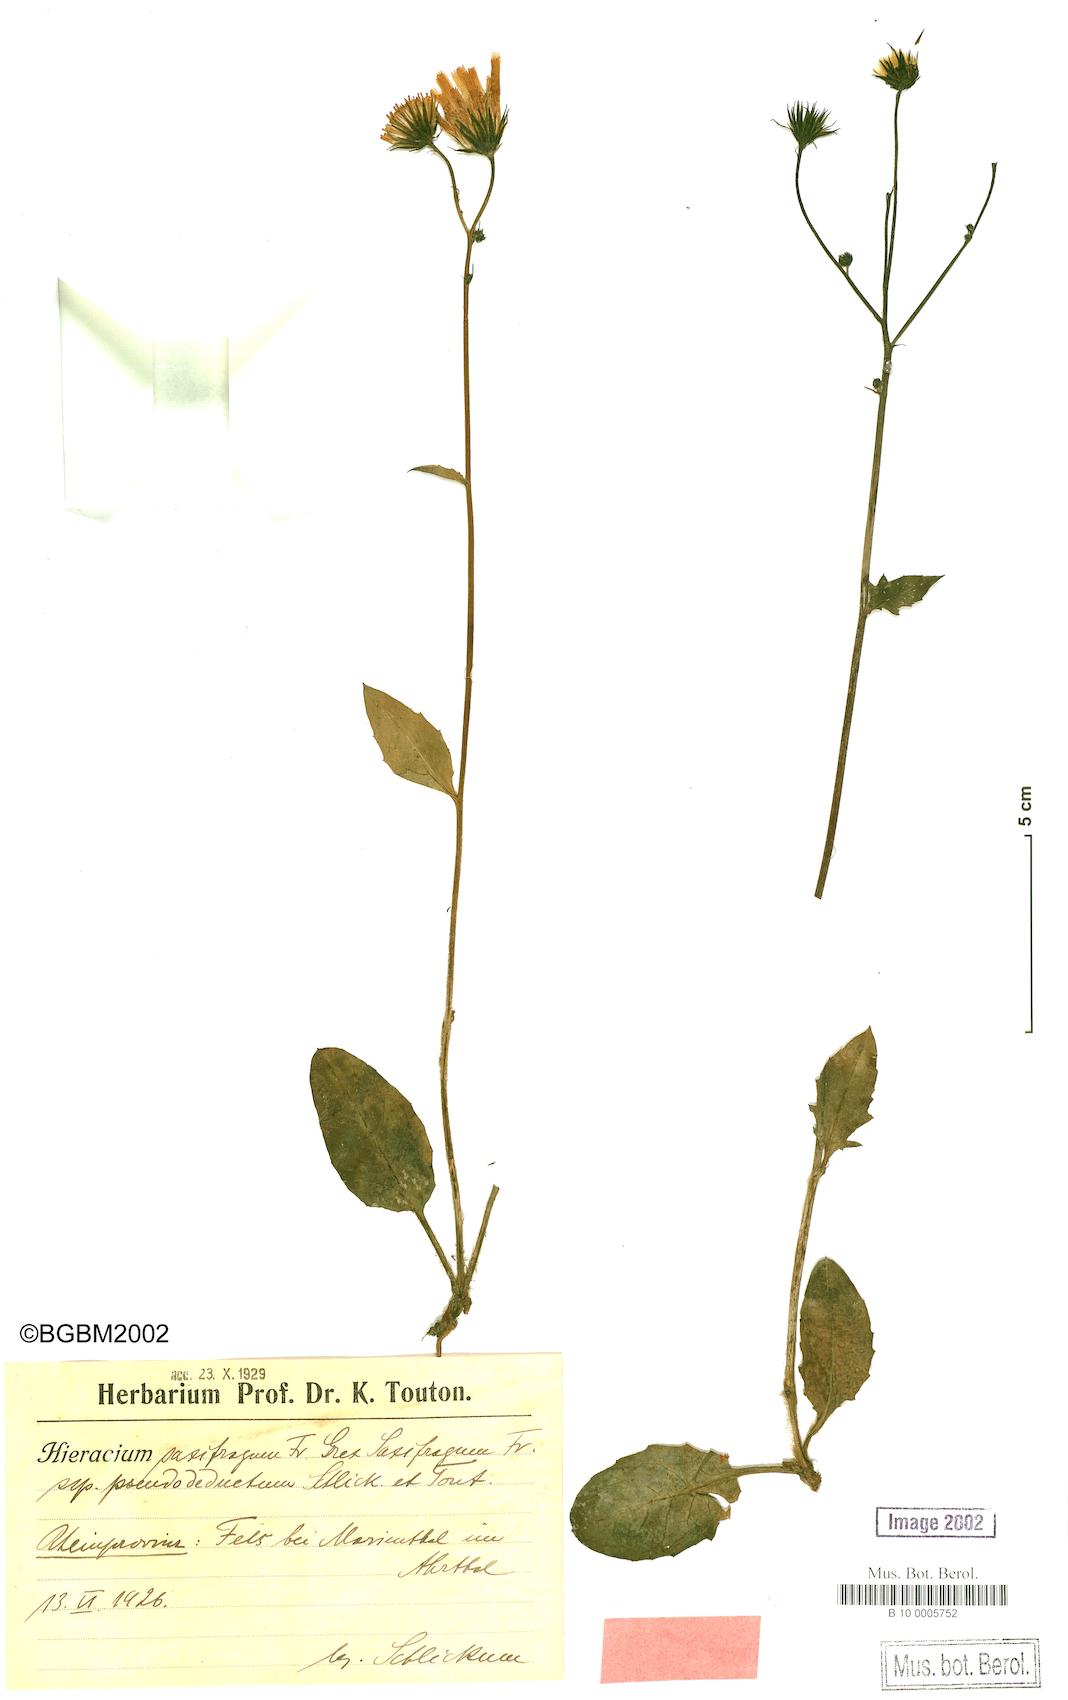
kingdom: Plantae
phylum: Tracheophyta
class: Magnoliopsida
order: Asterales
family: Asteraceae
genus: Hieracium
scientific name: Hieracium saxifragum
